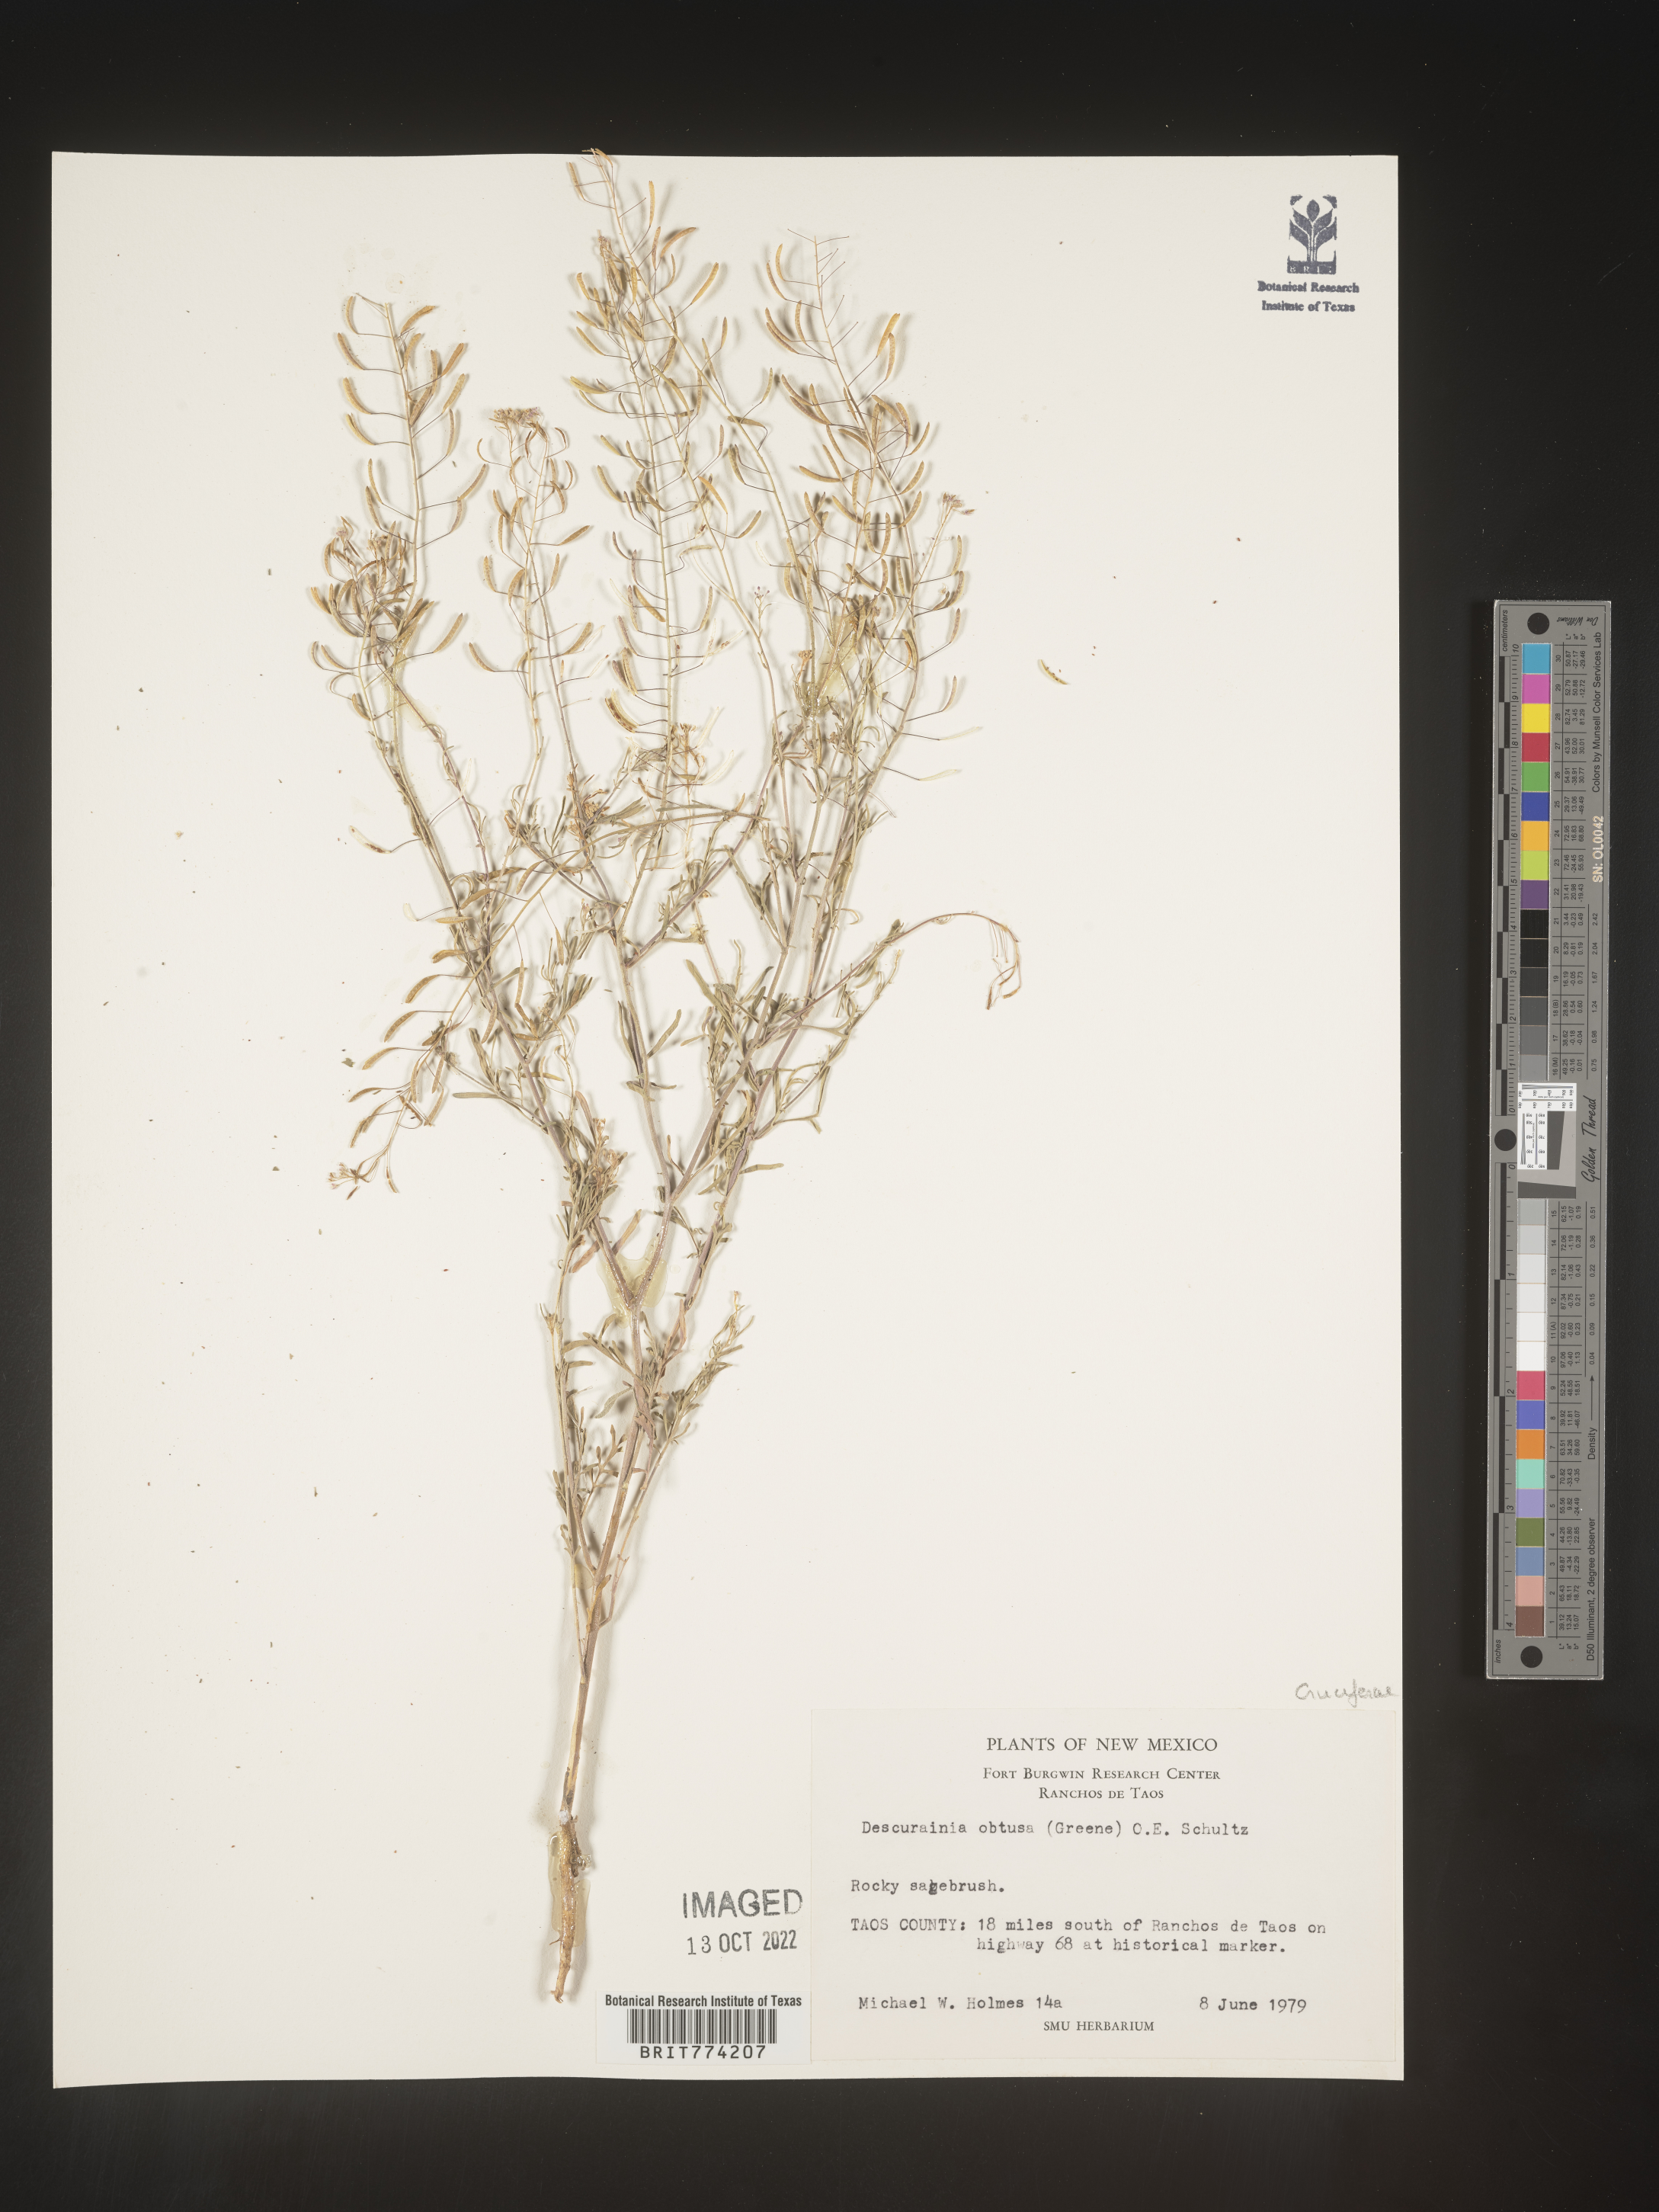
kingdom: Plantae
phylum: Tracheophyta
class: Magnoliopsida
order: Brassicales
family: Brassicaceae
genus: Descurainia
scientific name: Descurainia
